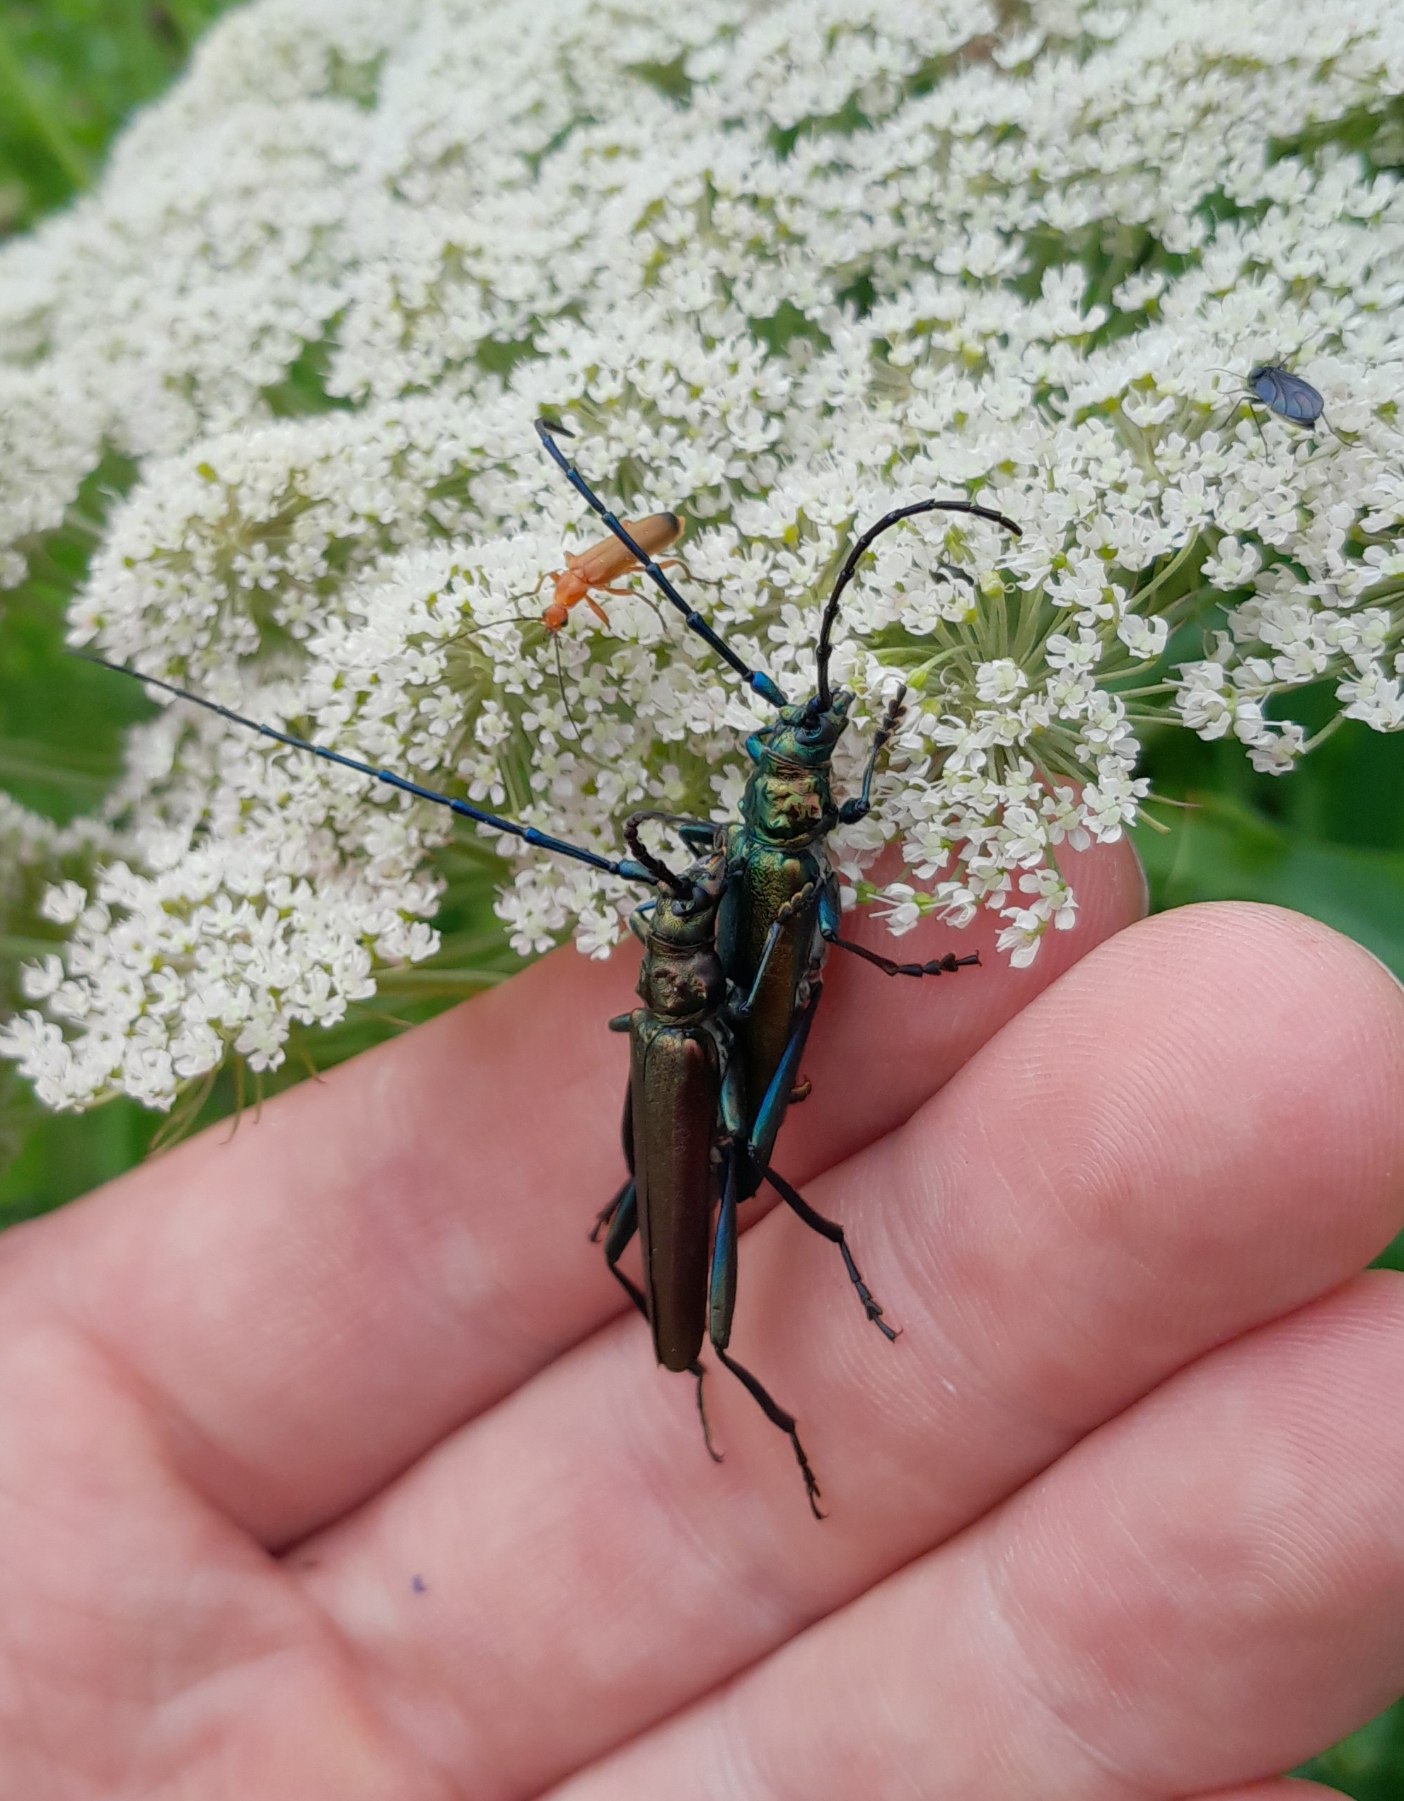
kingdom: Animalia
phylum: Arthropoda
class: Insecta
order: Coleoptera
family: Cerambycidae
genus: Aromia
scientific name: Aromia moschata
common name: Moskusbuk
